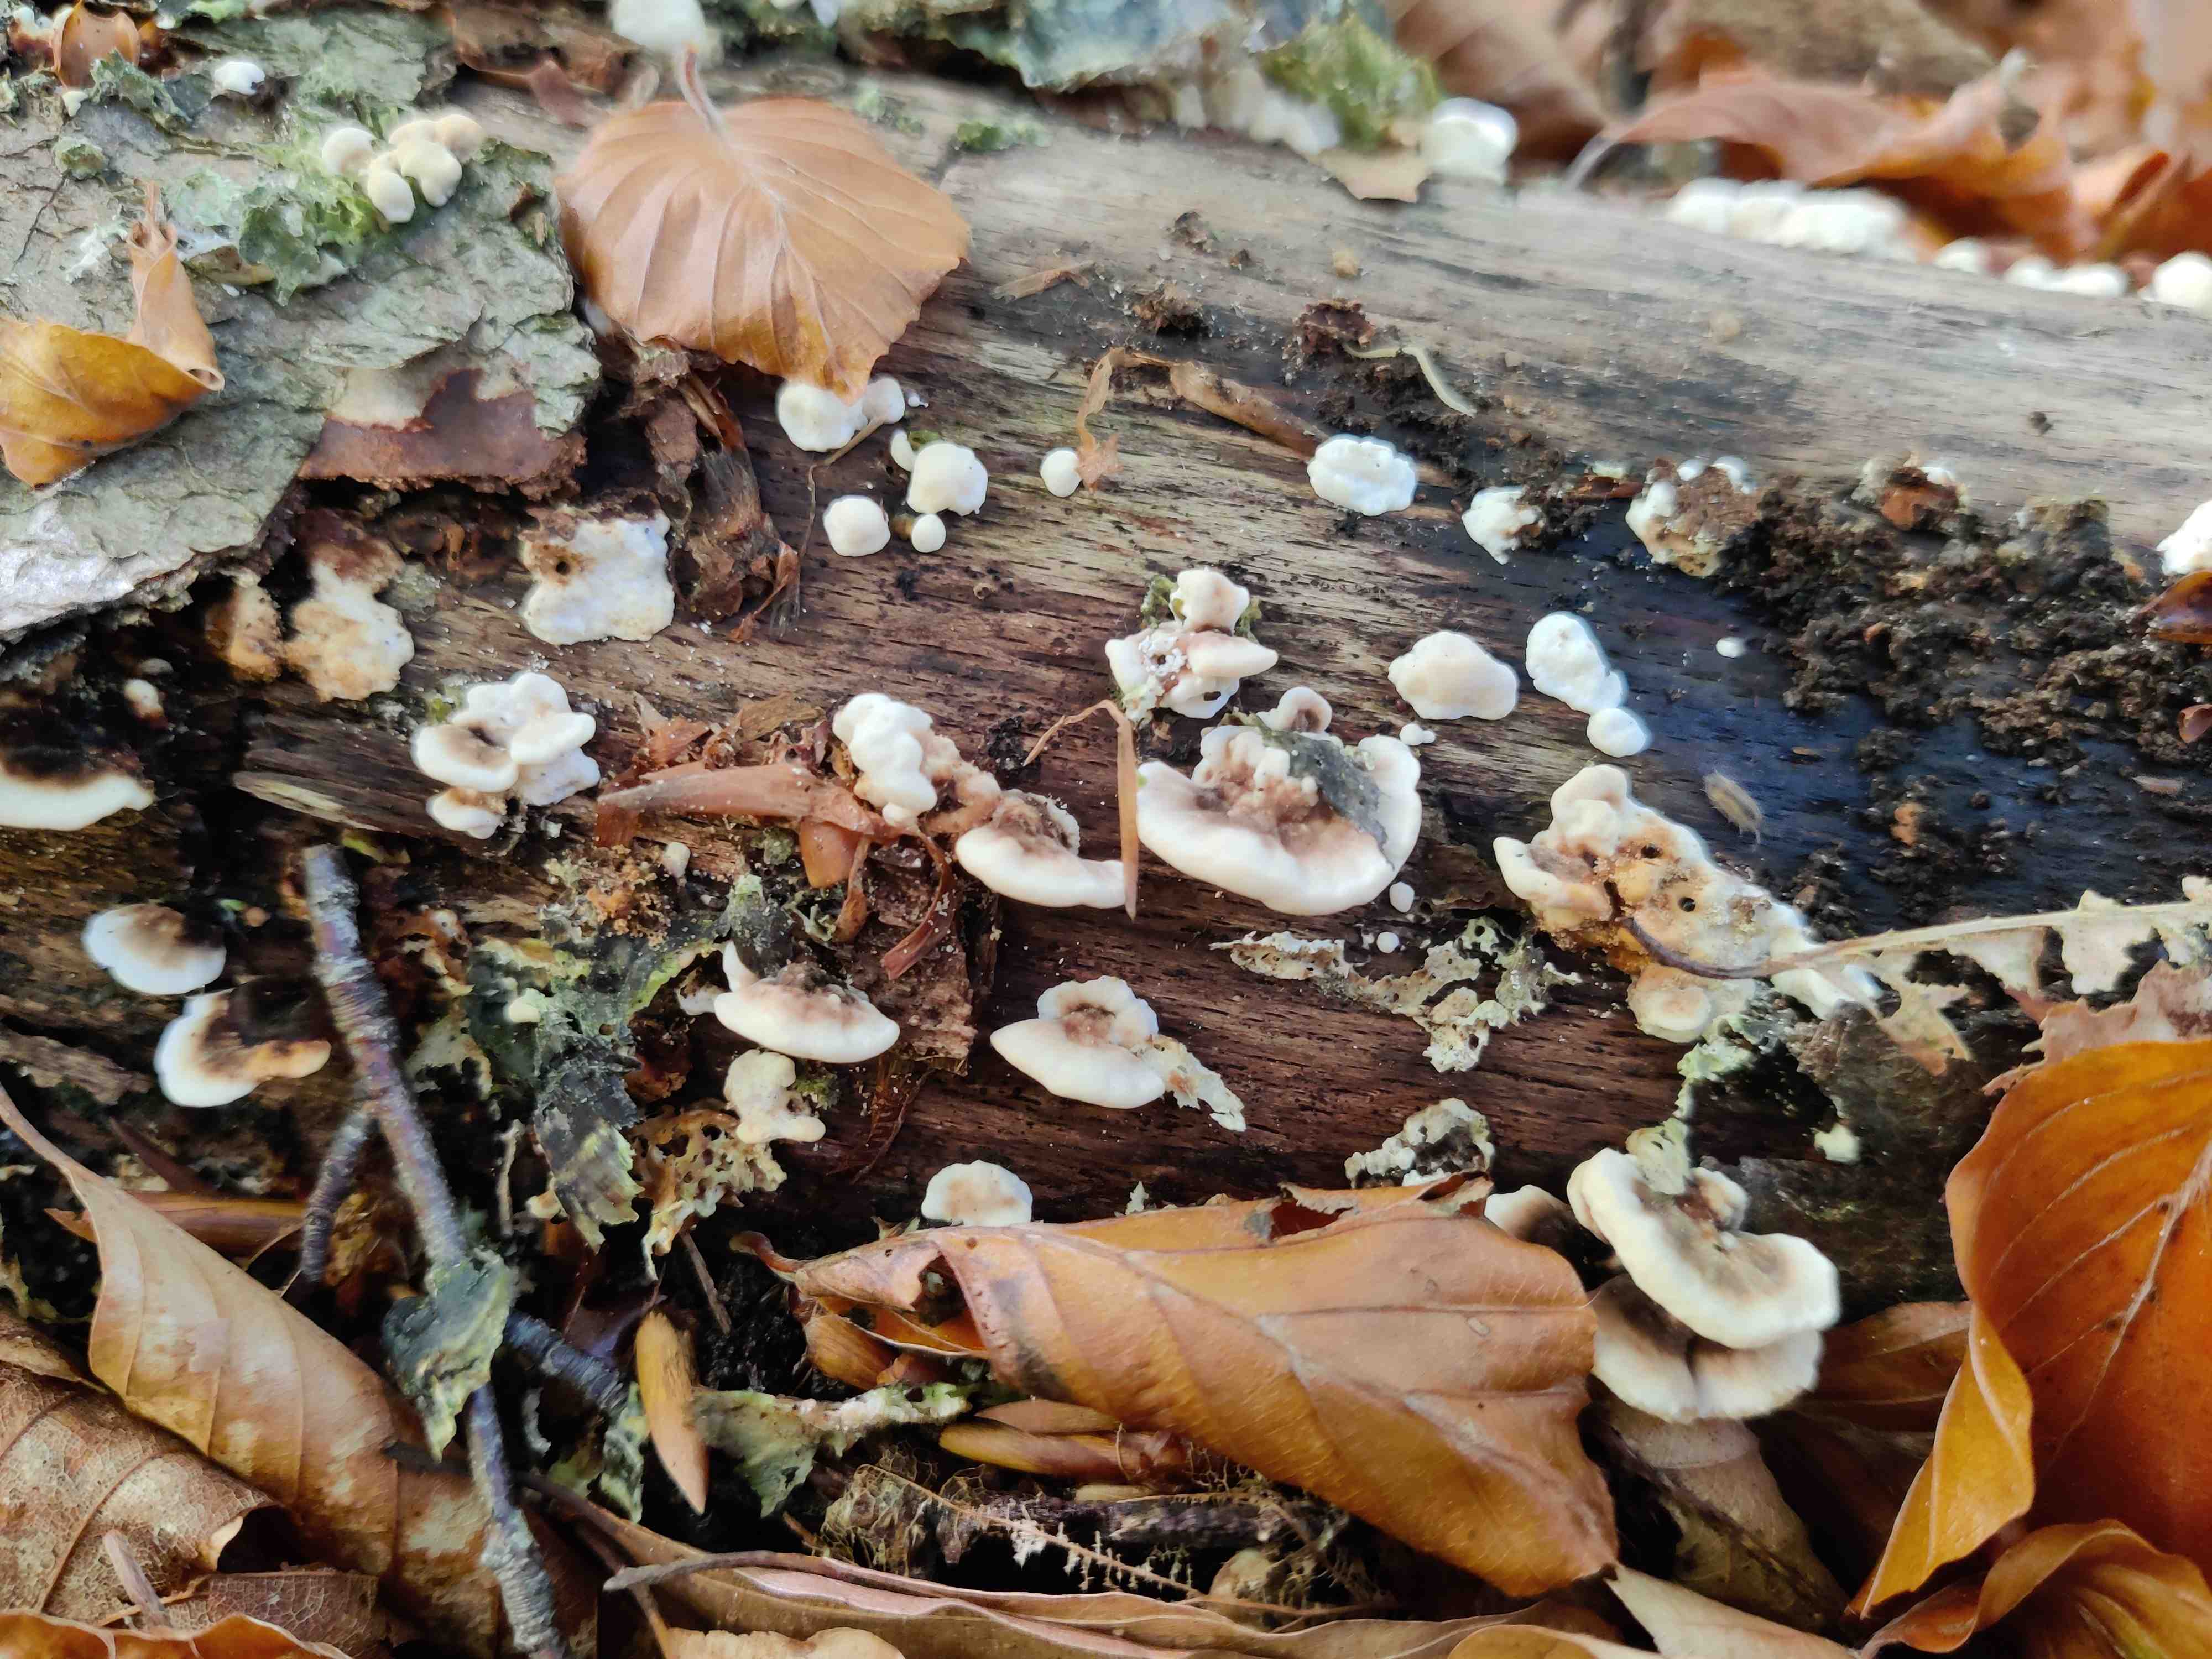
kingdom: Fungi
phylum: Basidiomycota
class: Agaricomycetes
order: Polyporales
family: Polyporaceae
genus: Trametes
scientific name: Trametes versicolor
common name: broget læderporesvamp
